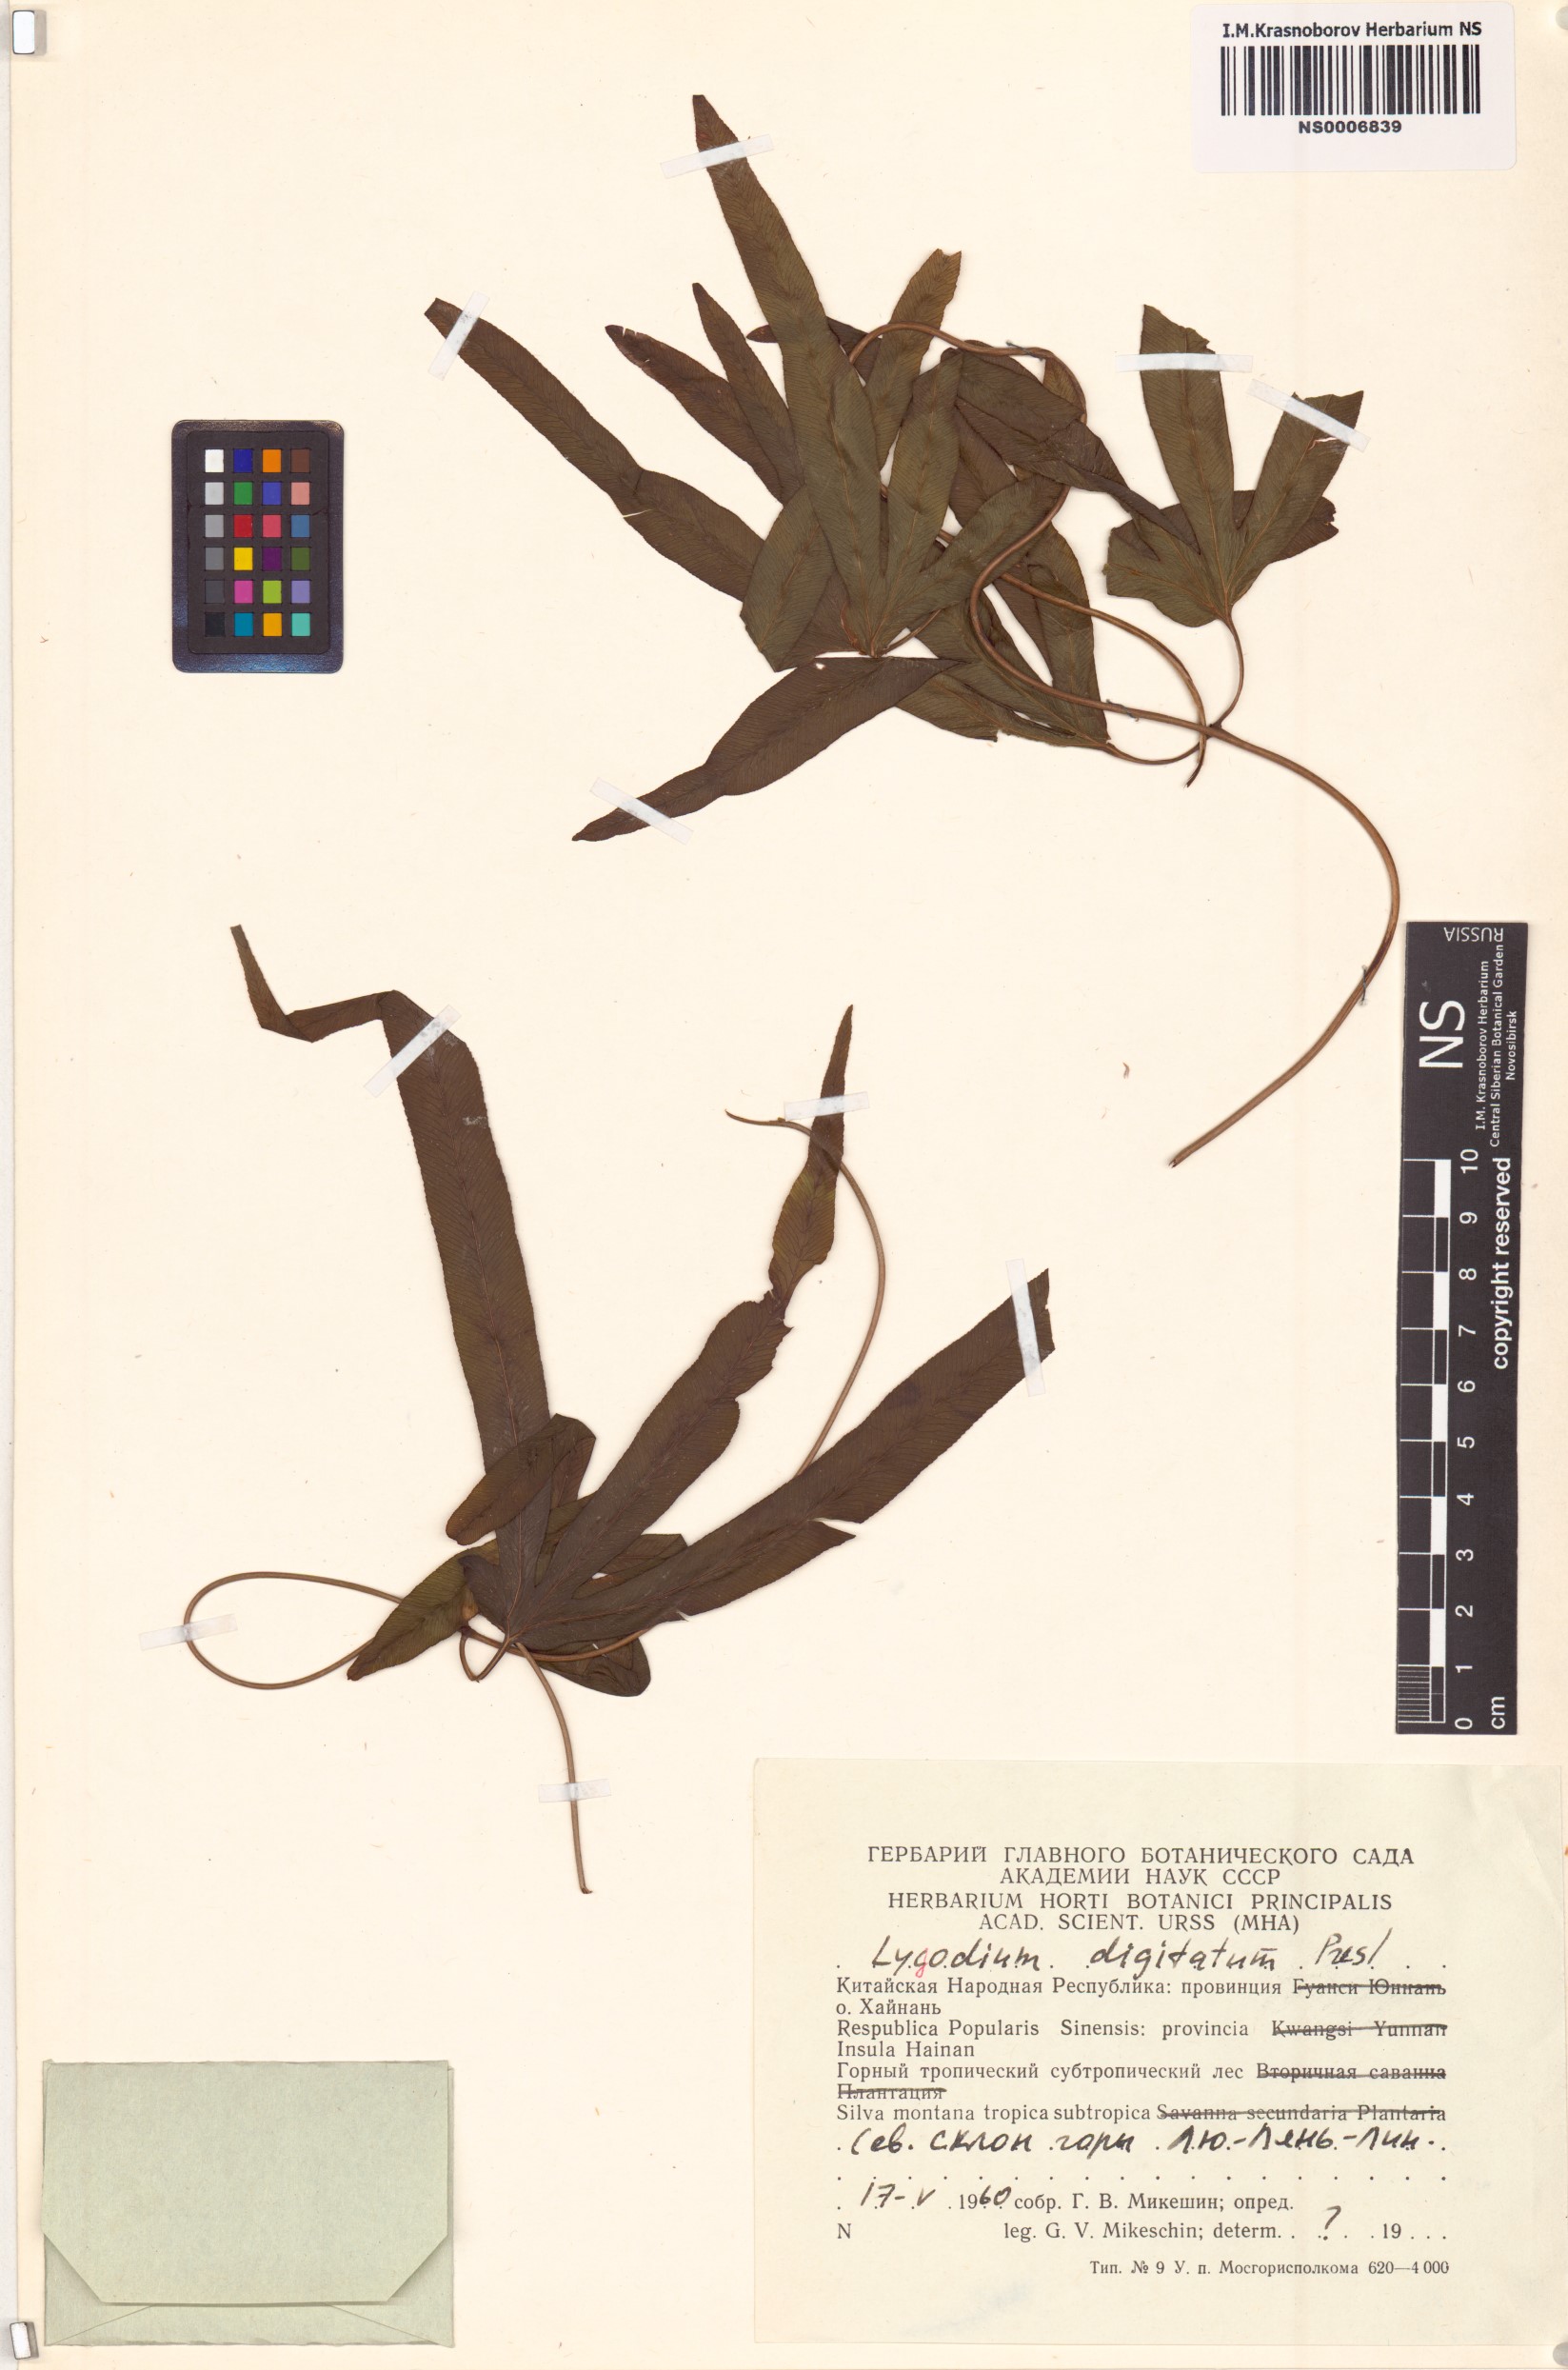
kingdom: Plantae
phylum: Tracheophyta
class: Polypodiopsida
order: Schizaeales
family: Lygodiaceae
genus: Lygodium
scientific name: Lygodium longifolium
